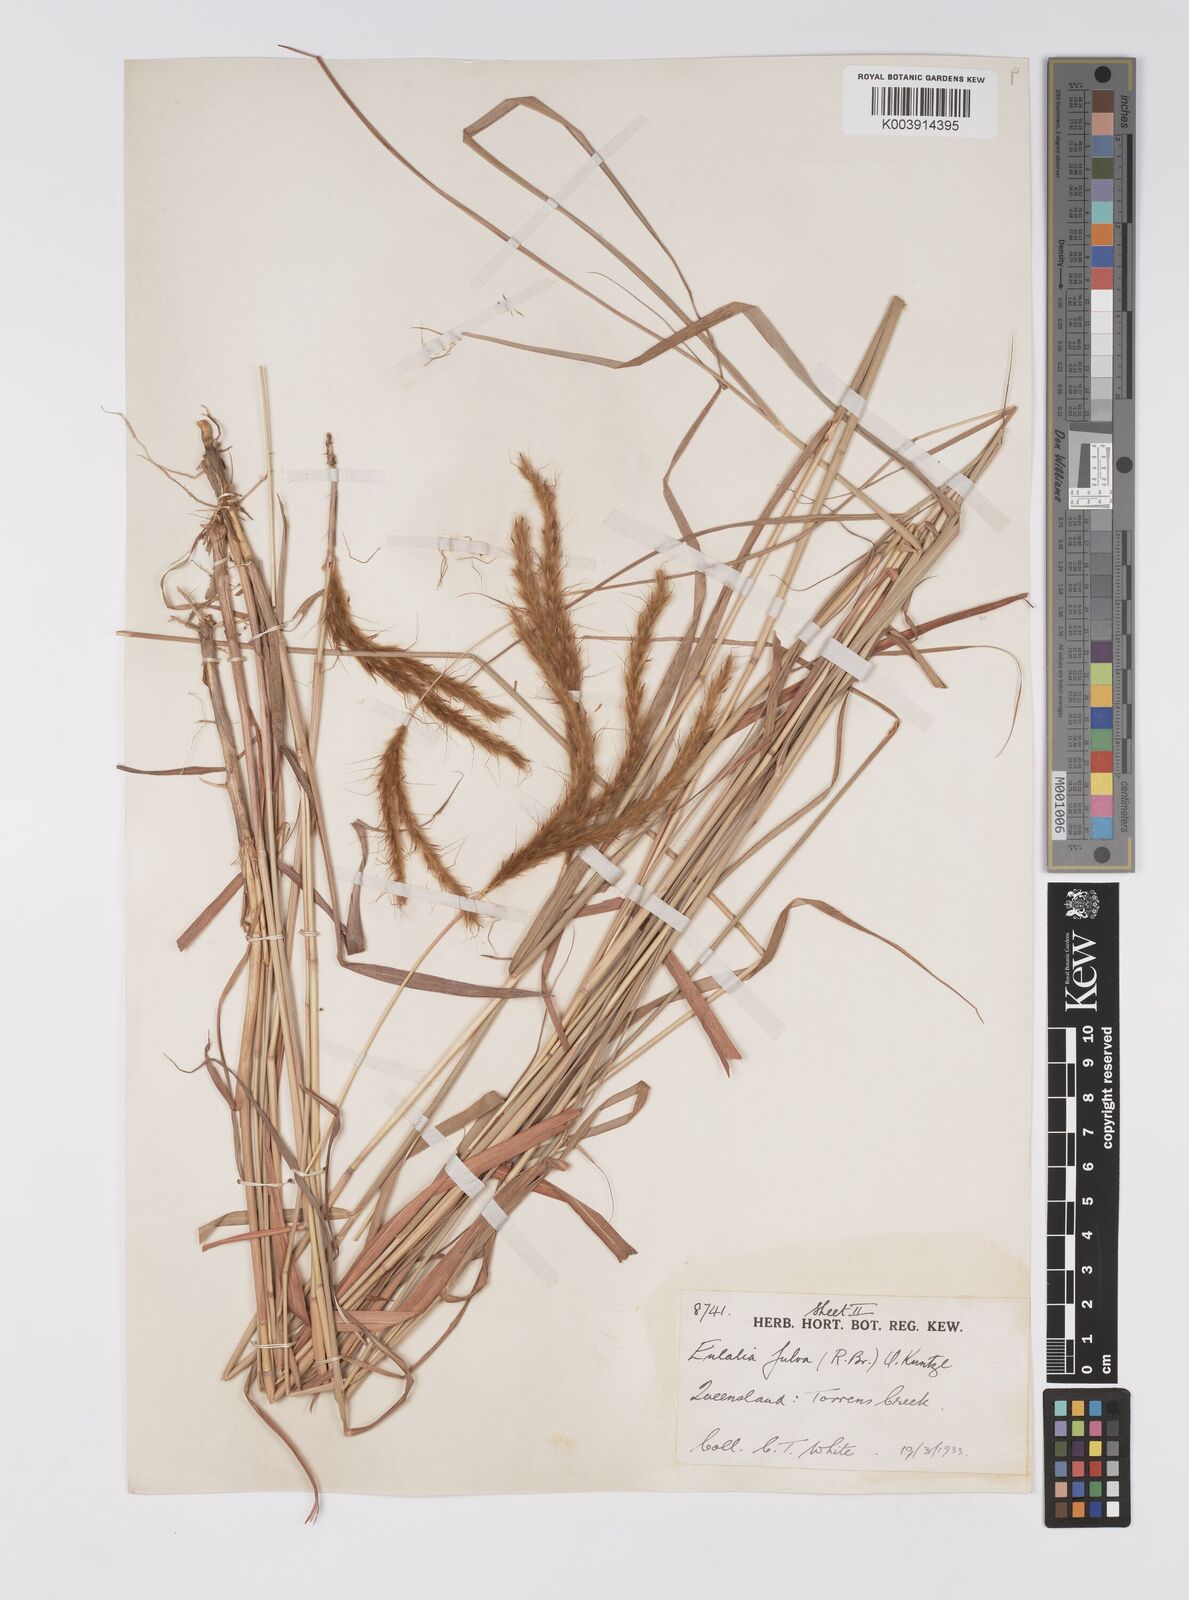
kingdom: Plantae
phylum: Tracheophyta
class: Liliopsida
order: Poales
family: Poaceae
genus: Eulalia
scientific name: Eulalia aurea
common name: Silky browntop
